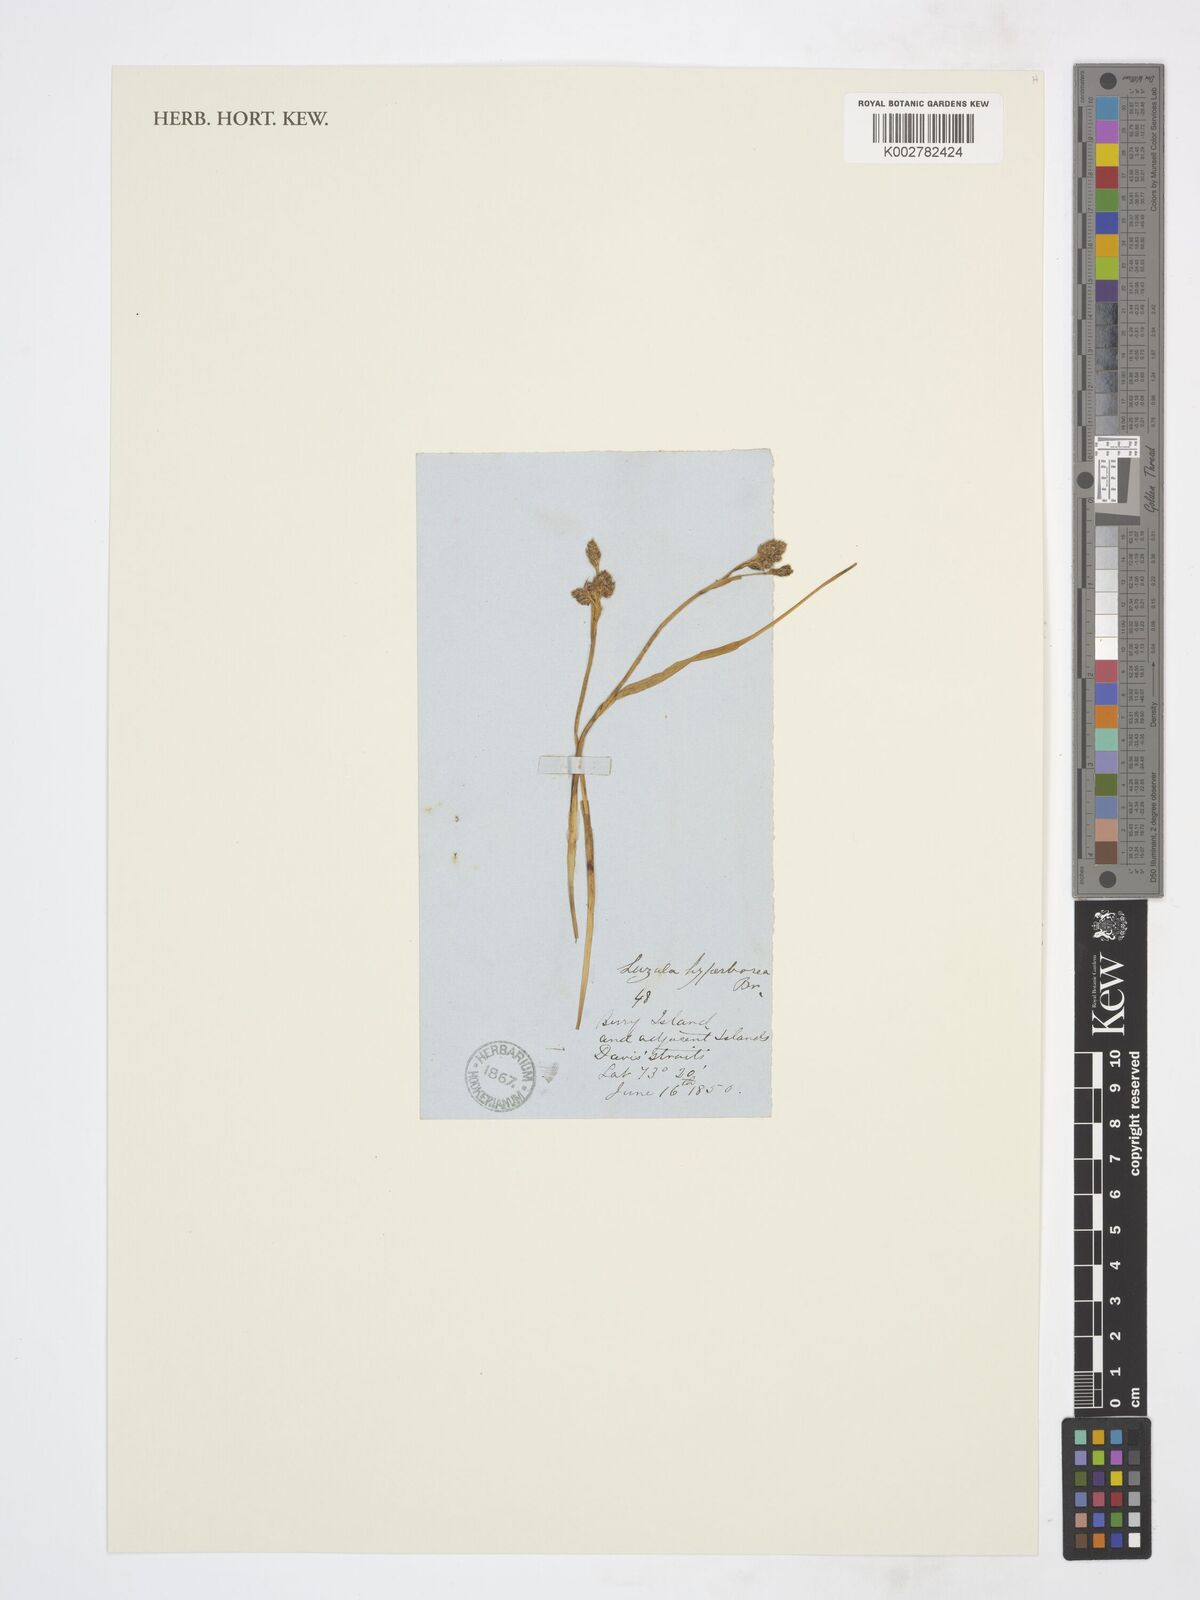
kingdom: Plantae
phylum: Tracheophyta
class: Liliopsida
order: Poales
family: Juncaceae
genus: Luzula
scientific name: Luzula confusa
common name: Northern wood rush
